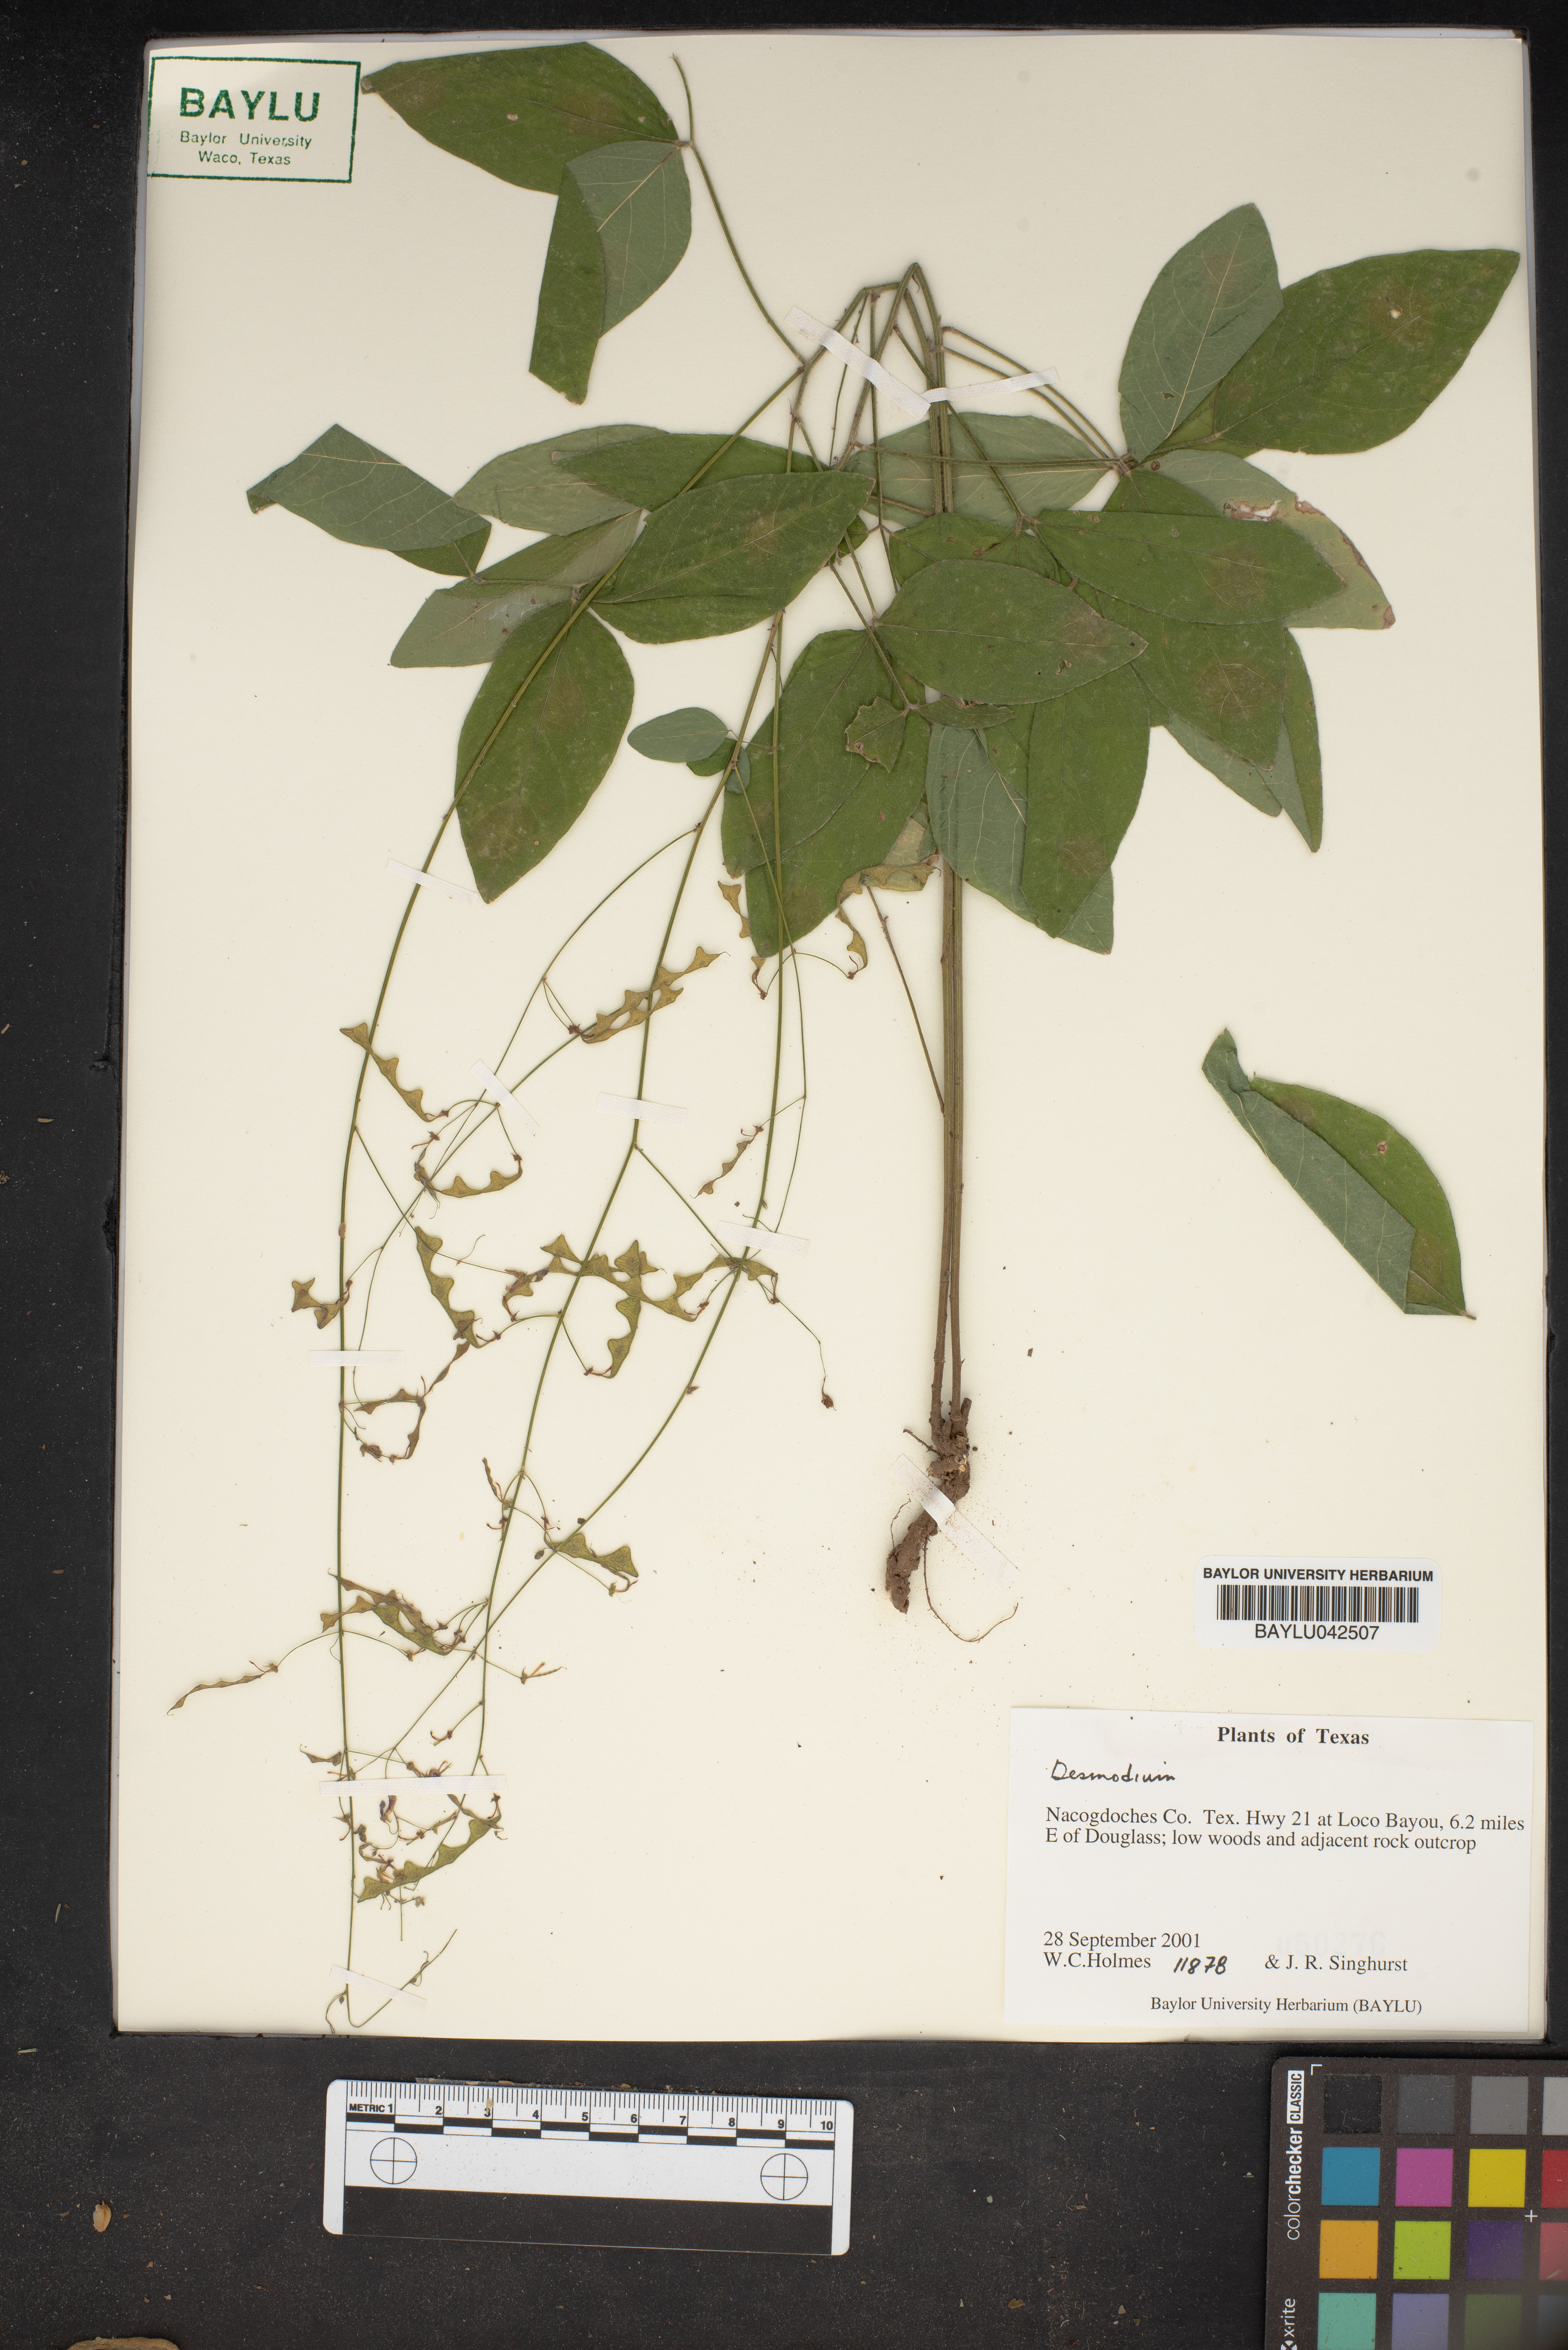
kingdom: Plantae
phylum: Tracheophyta
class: Magnoliopsida
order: Fabales
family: Fabaceae
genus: Desmodium
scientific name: Desmodium
